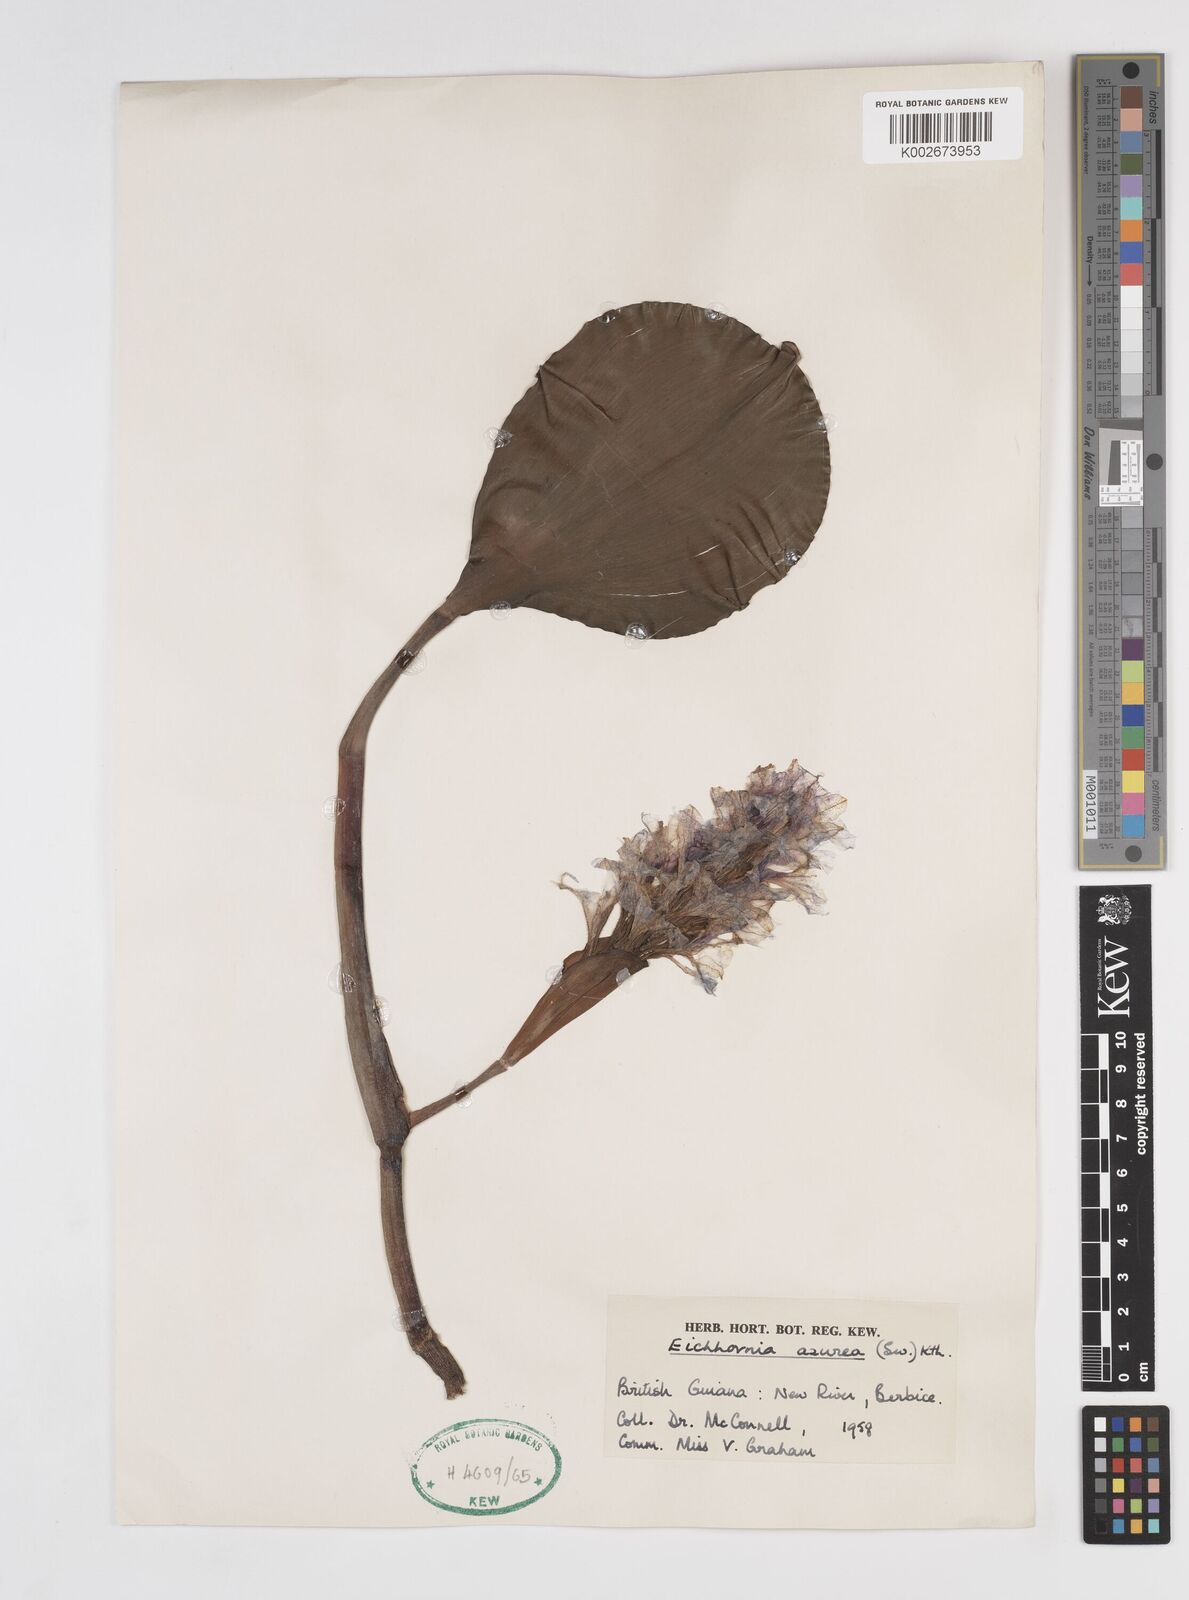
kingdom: Plantae
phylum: Tracheophyta
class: Liliopsida
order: Commelinales
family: Pontederiaceae
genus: Pontederia
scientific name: Pontederia azurea
